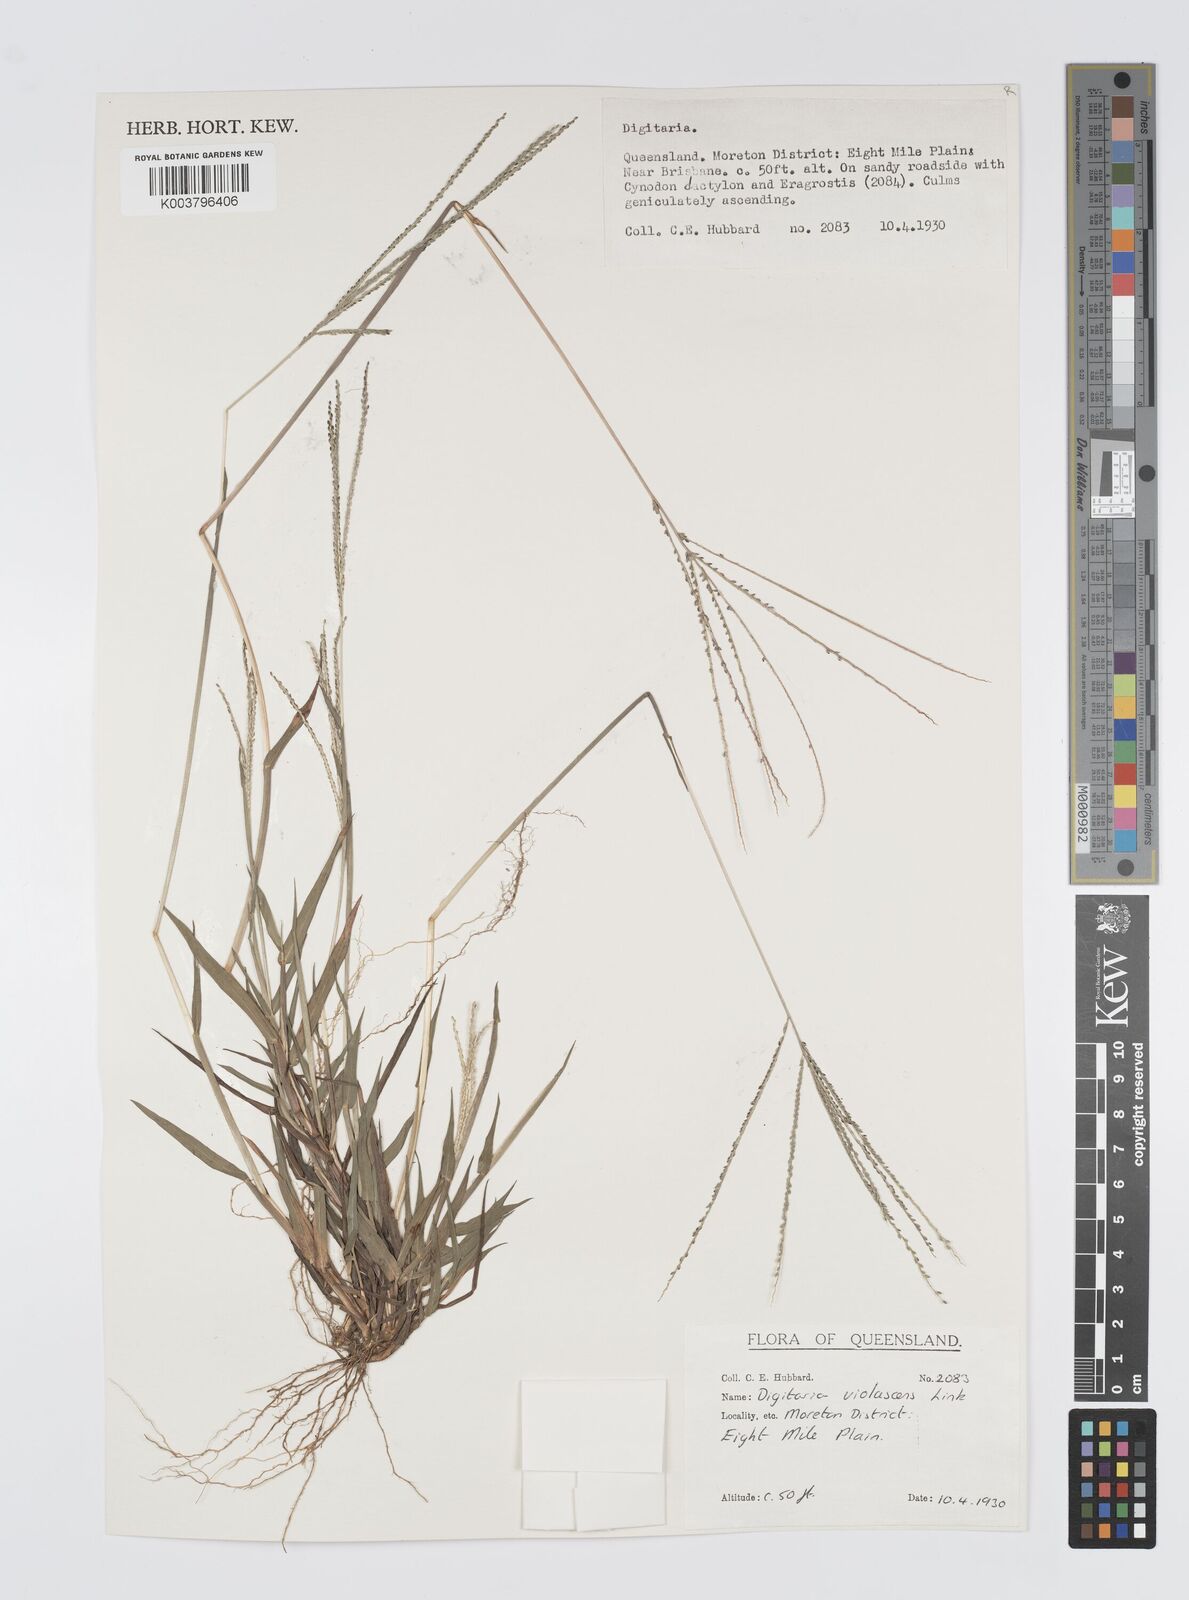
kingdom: Plantae
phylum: Tracheophyta
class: Liliopsida
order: Poales
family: Poaceae
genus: Digitaria
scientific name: Digitaria violascens
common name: Violet crabgrass
